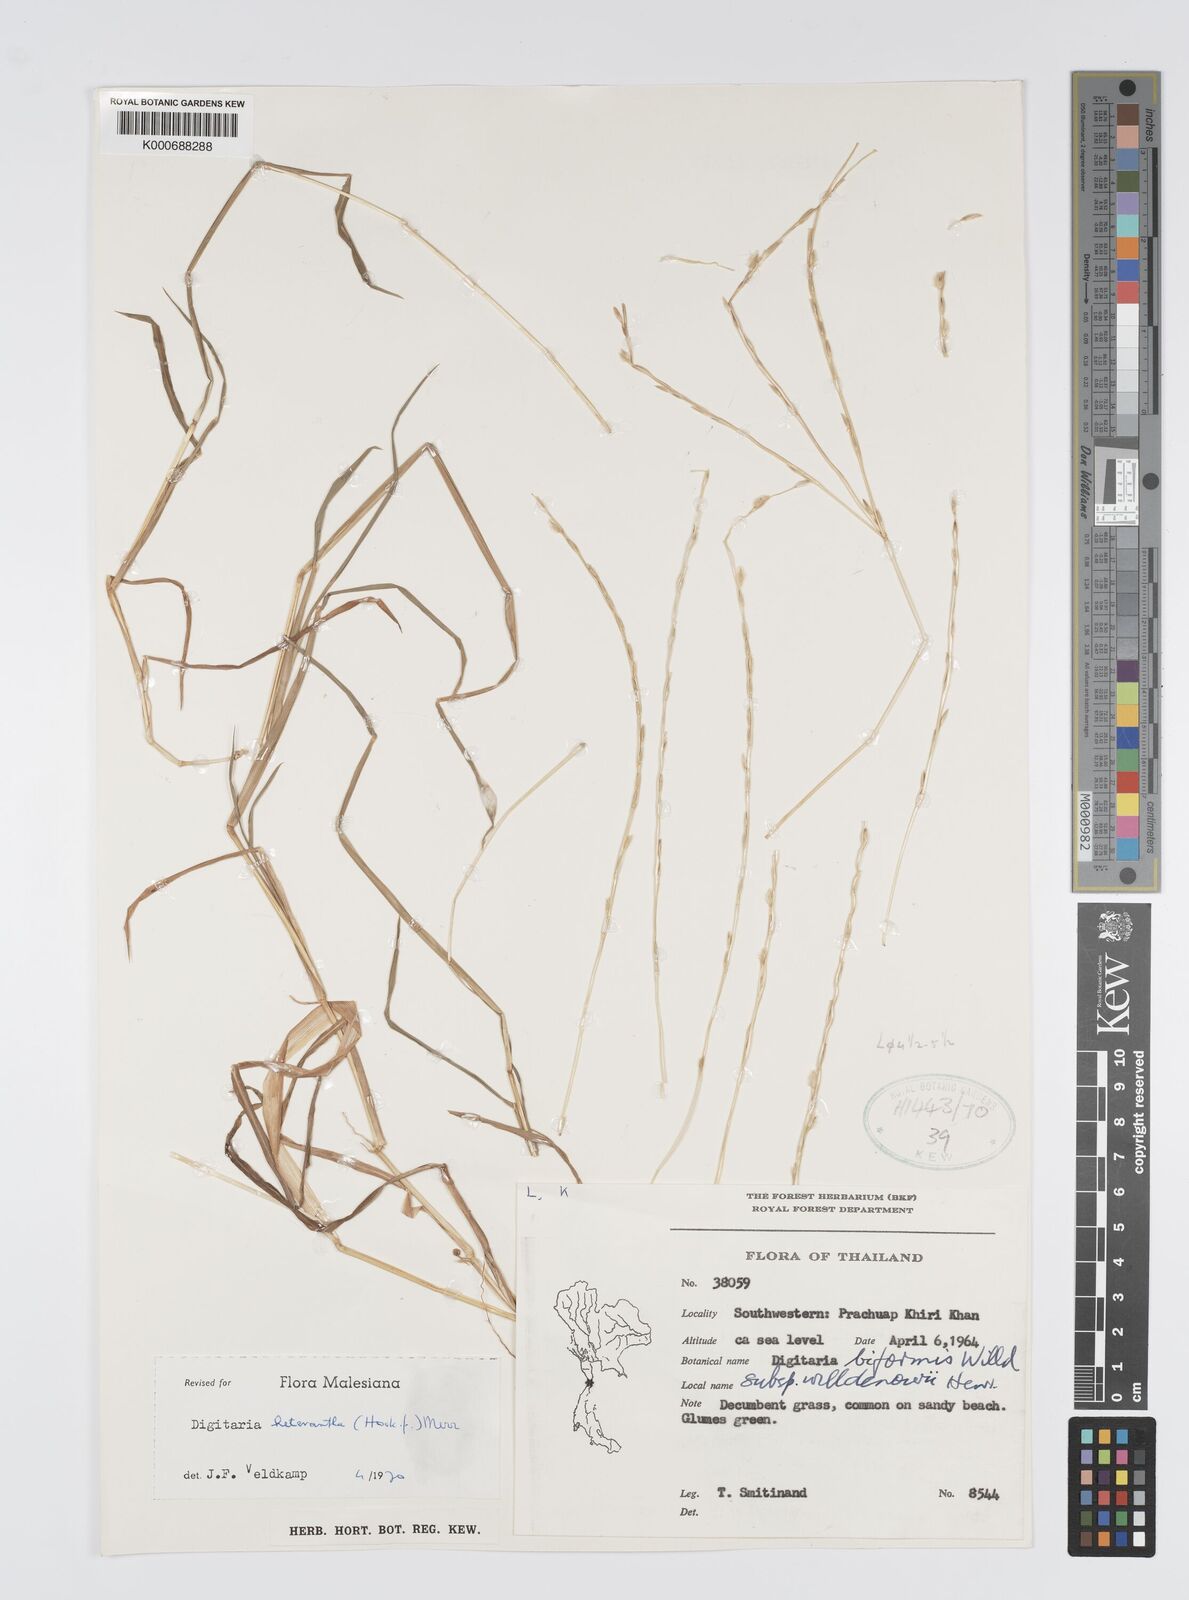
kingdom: Plantae
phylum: Tracheophyta
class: Liliopsida
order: Poales
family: Poaceae
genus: Digitaria
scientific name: Digitaria heterantha
